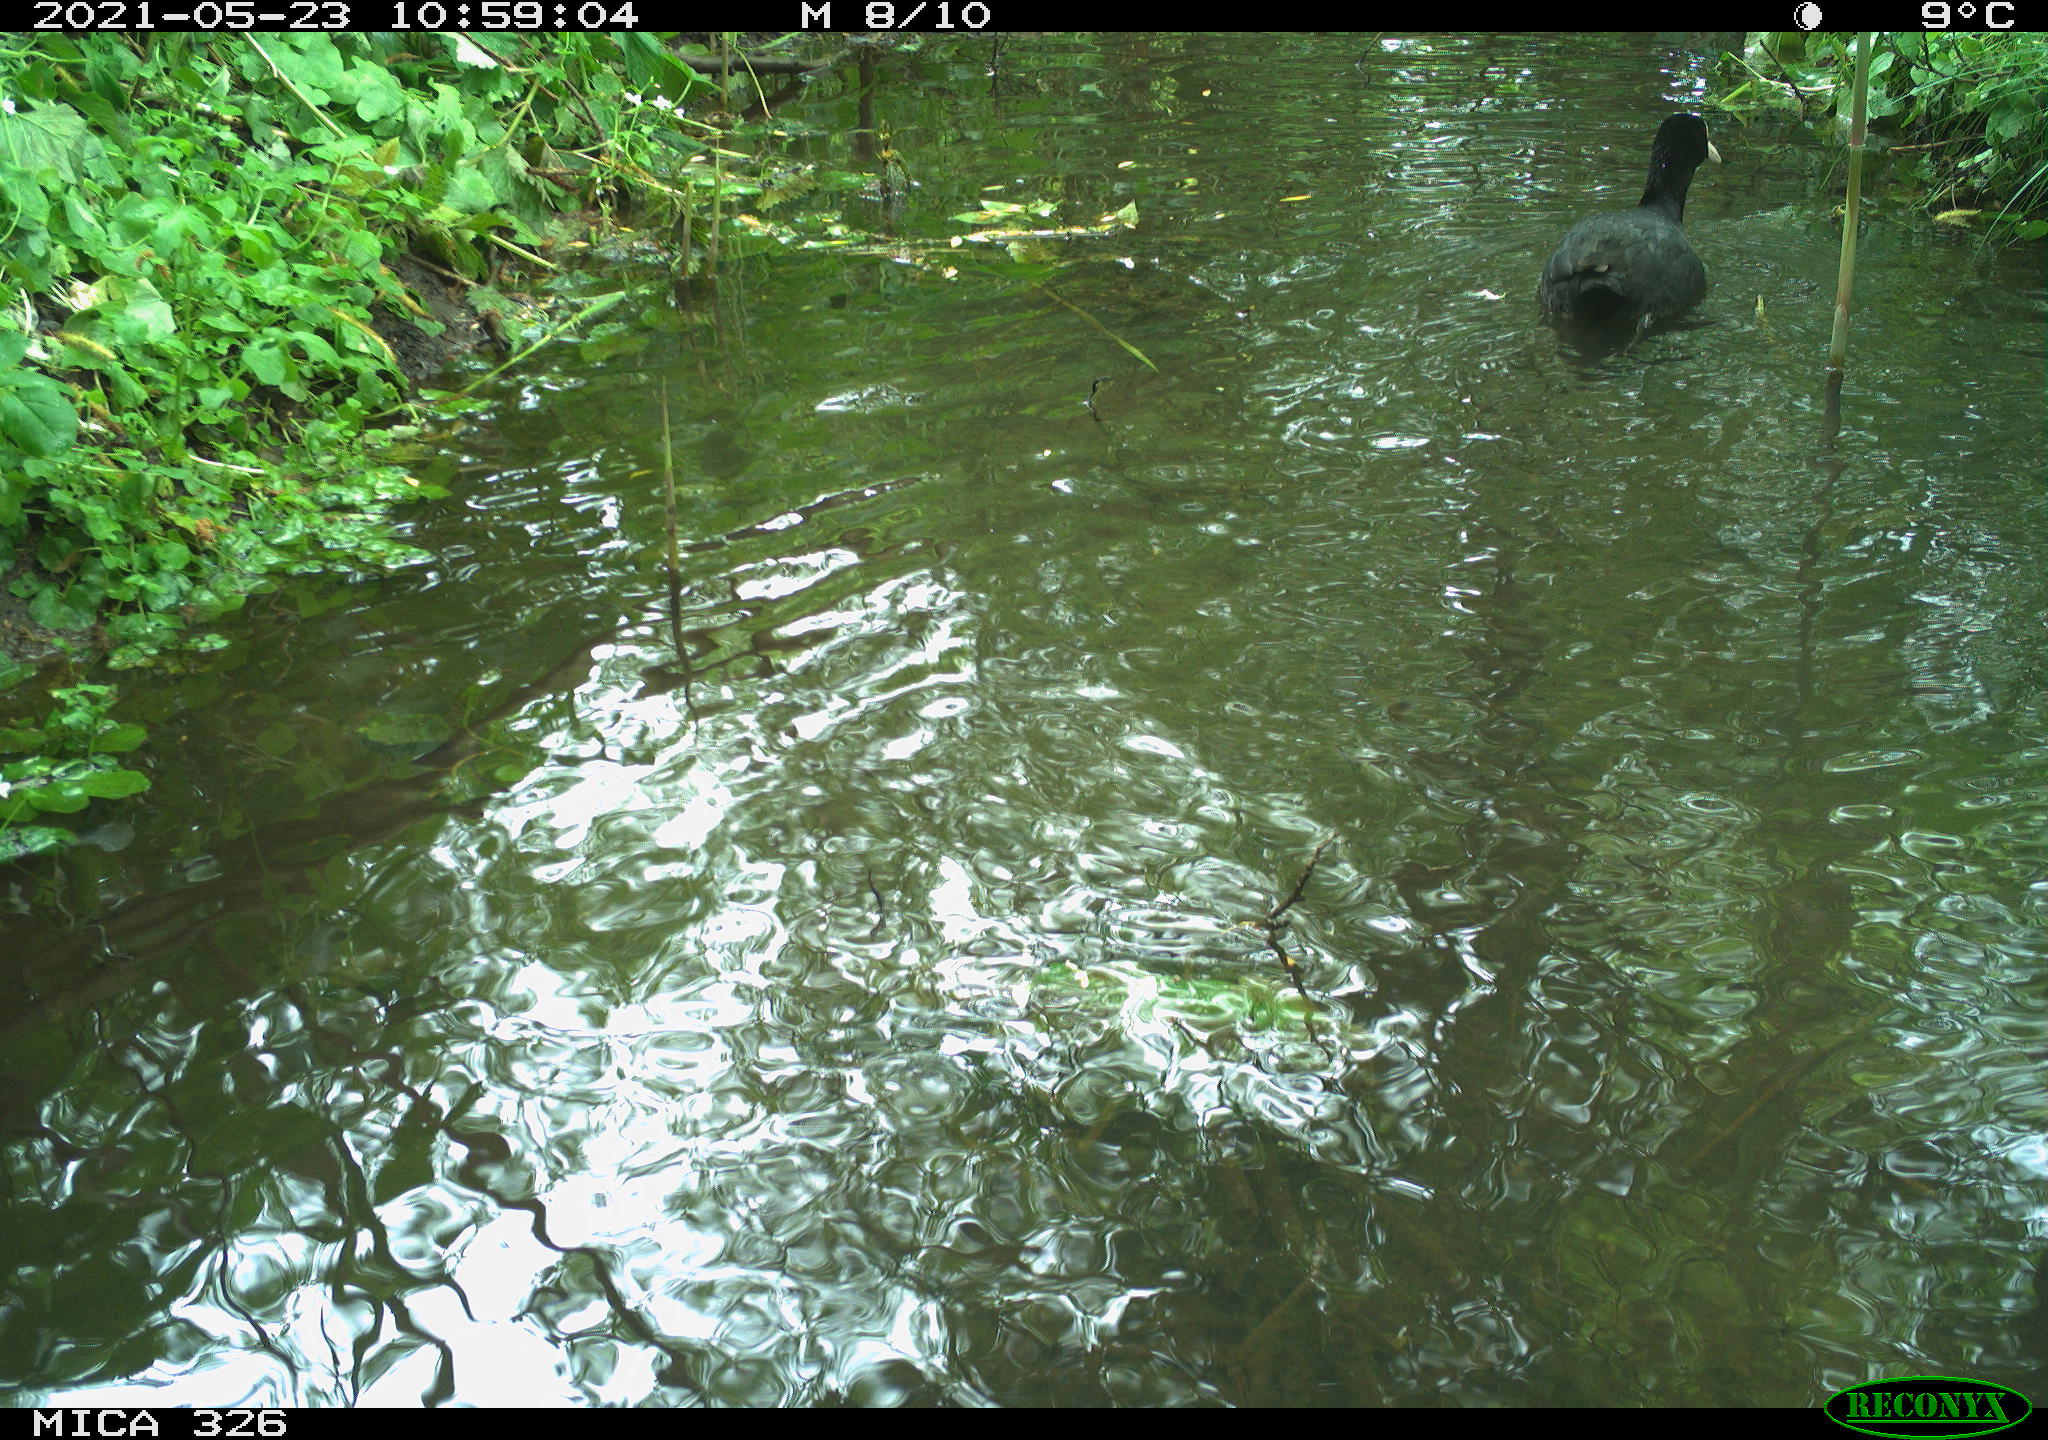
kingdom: Animalia
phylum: Chordata
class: Aves
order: Gruiformes
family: Rallidae
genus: Fulica
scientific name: Fulica atra
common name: Eurasian coot
